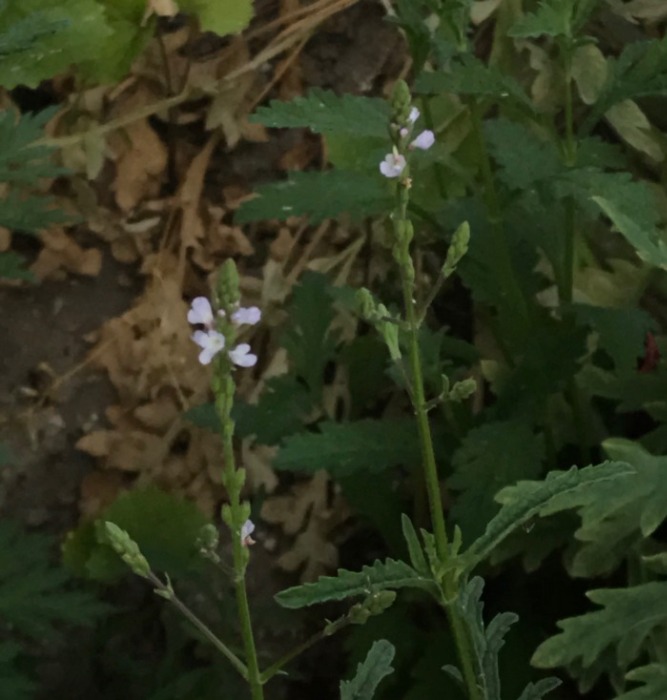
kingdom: Plantae
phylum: Tracheophyta
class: Magnoliopsida
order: Lamiales
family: Verbenaceae
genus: Verbena
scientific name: Verbena officinalis
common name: Læge-jernurt
